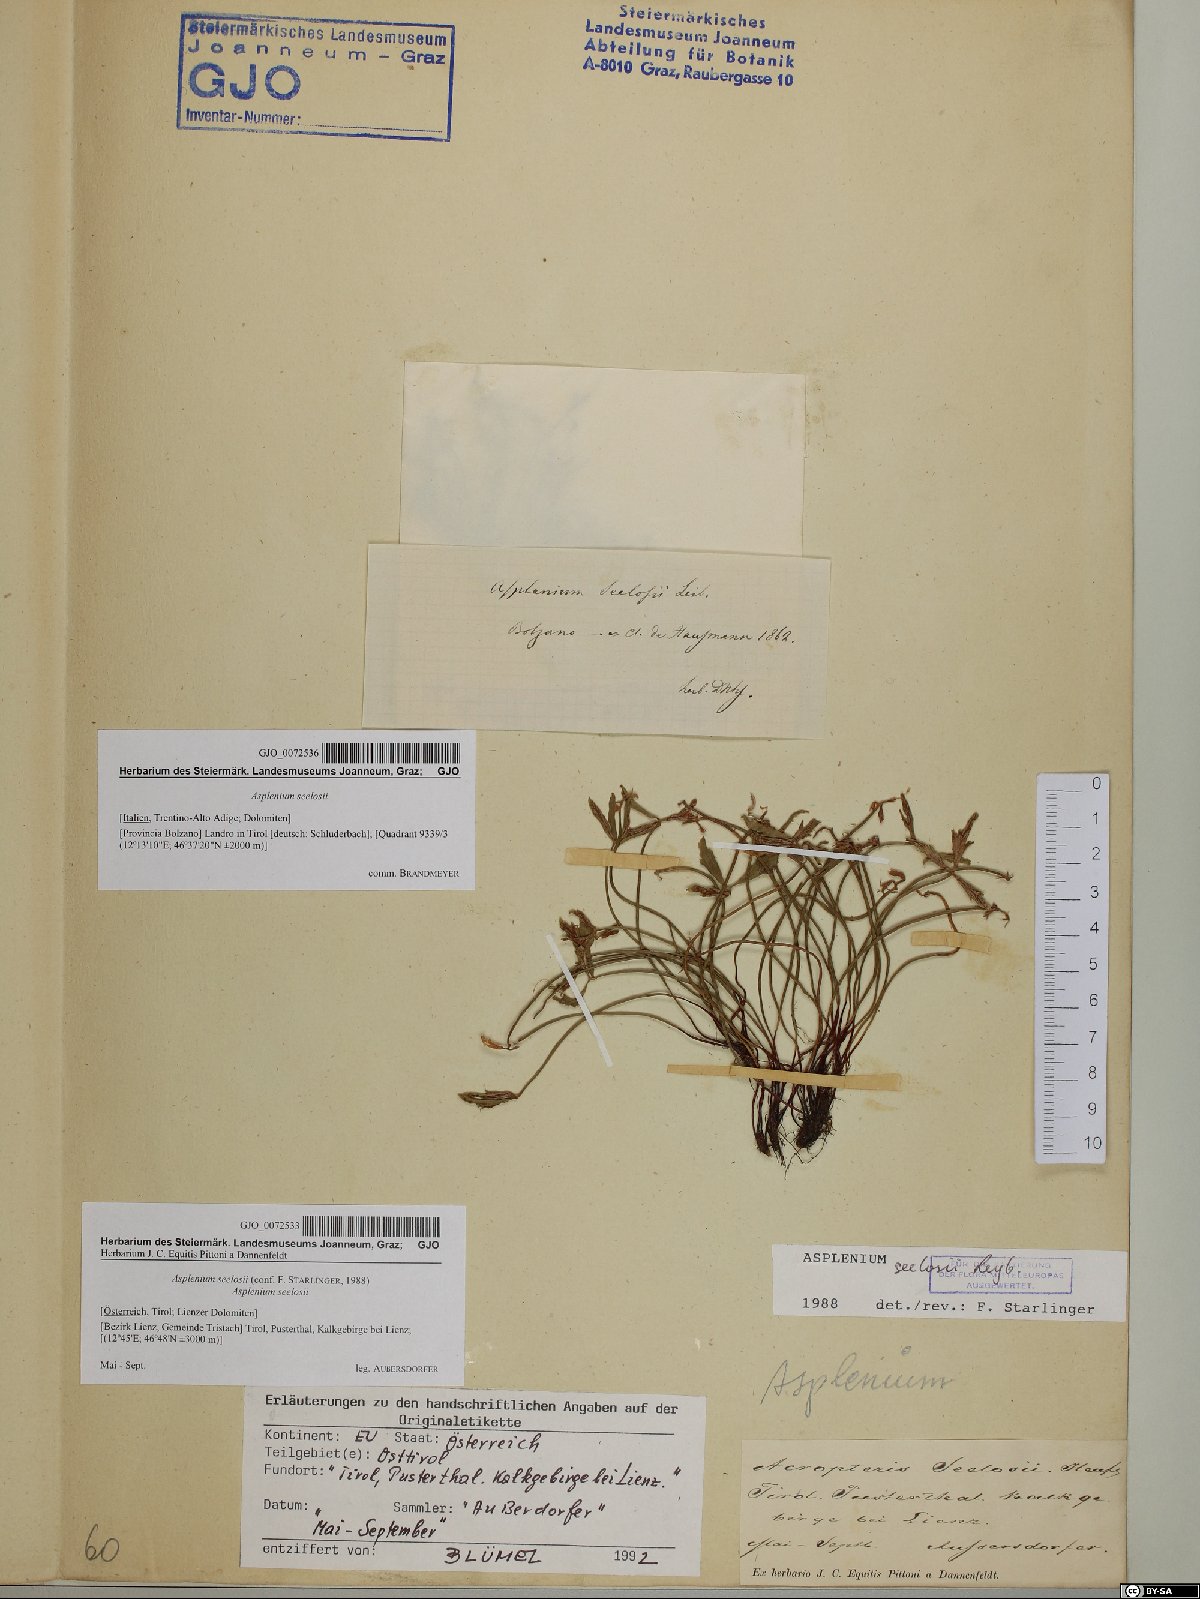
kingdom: Plantae
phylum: Tracheophyta
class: Polypodiopsida
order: Polypodiales
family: Aspleniaceae
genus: Asplenium
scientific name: Asplenium seelosii
